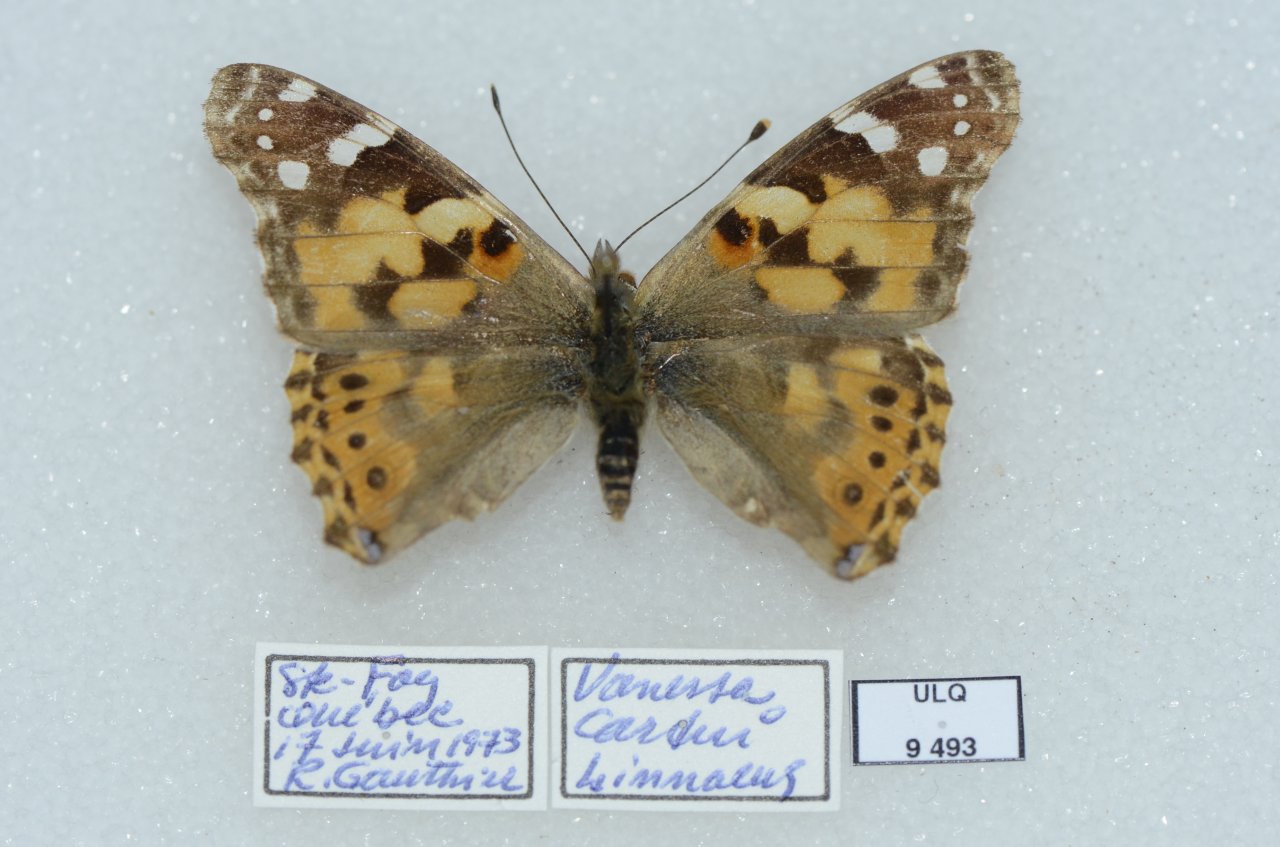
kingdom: Animalia
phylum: Arthropoda
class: Insecta
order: Lepidoptera
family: Nymphalidae
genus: Vanessa
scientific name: Vanessa cardui
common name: Painted Lady
